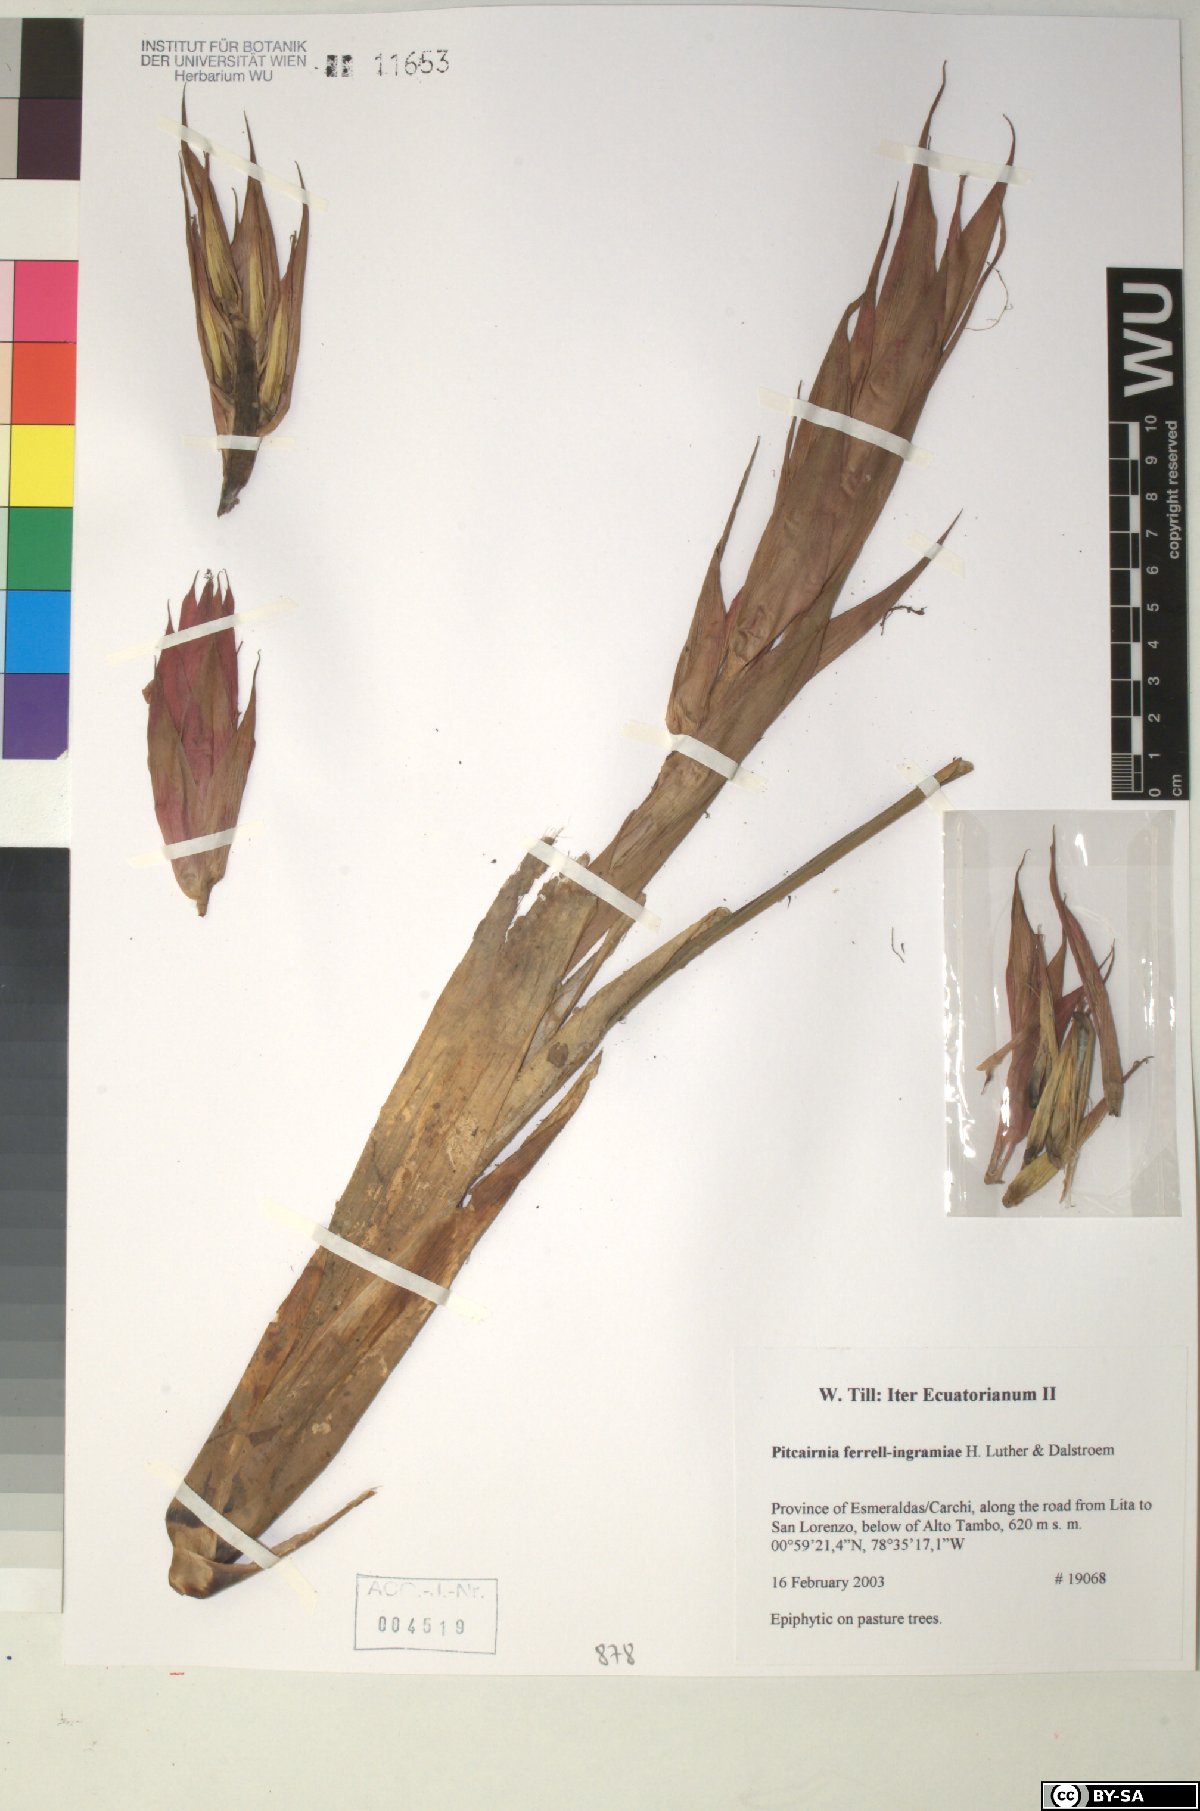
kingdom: Plantae
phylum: Tracheophyta
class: Liliopsida
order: Poales
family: Bromeliaceae
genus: Pitcairnia
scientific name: Pitcairnia ferrell-ingramiae
